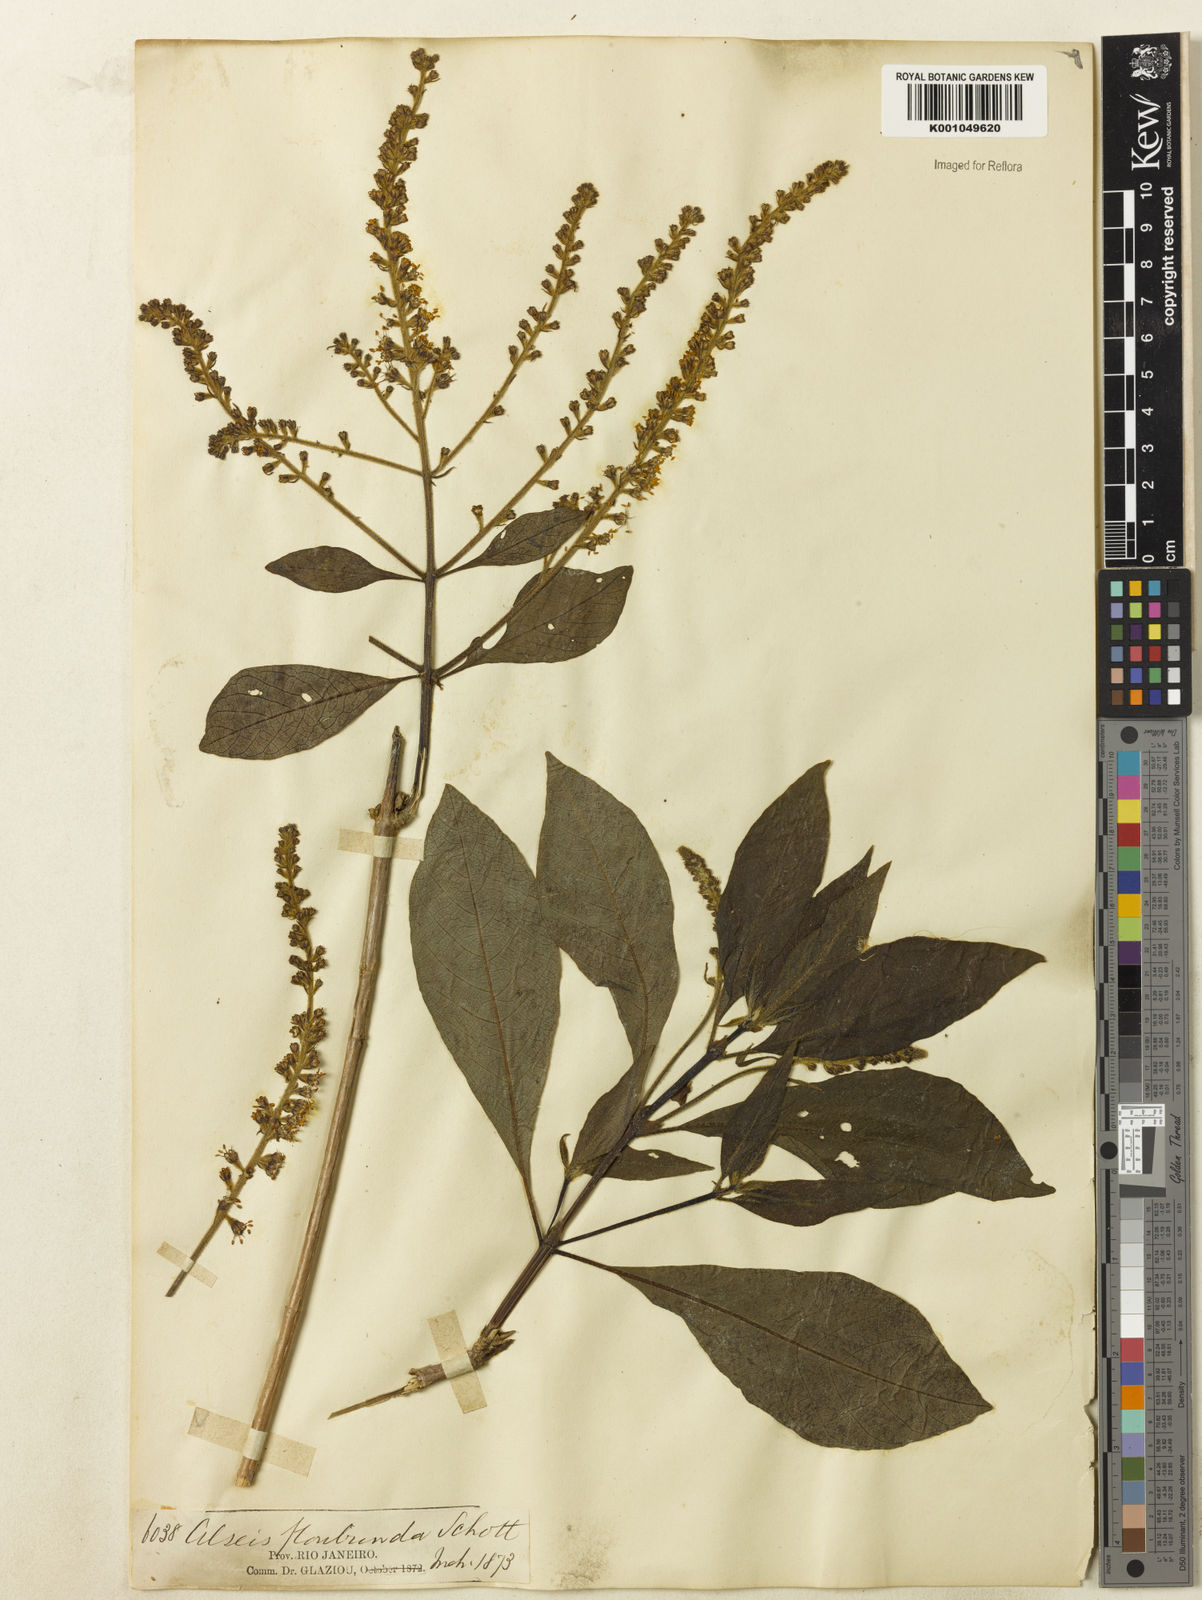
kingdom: Plantae
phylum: Tracheophyta
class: Magnoliopsida
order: Gentianales
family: Rubiaceae
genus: Alseis
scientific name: Alseis floribunda
